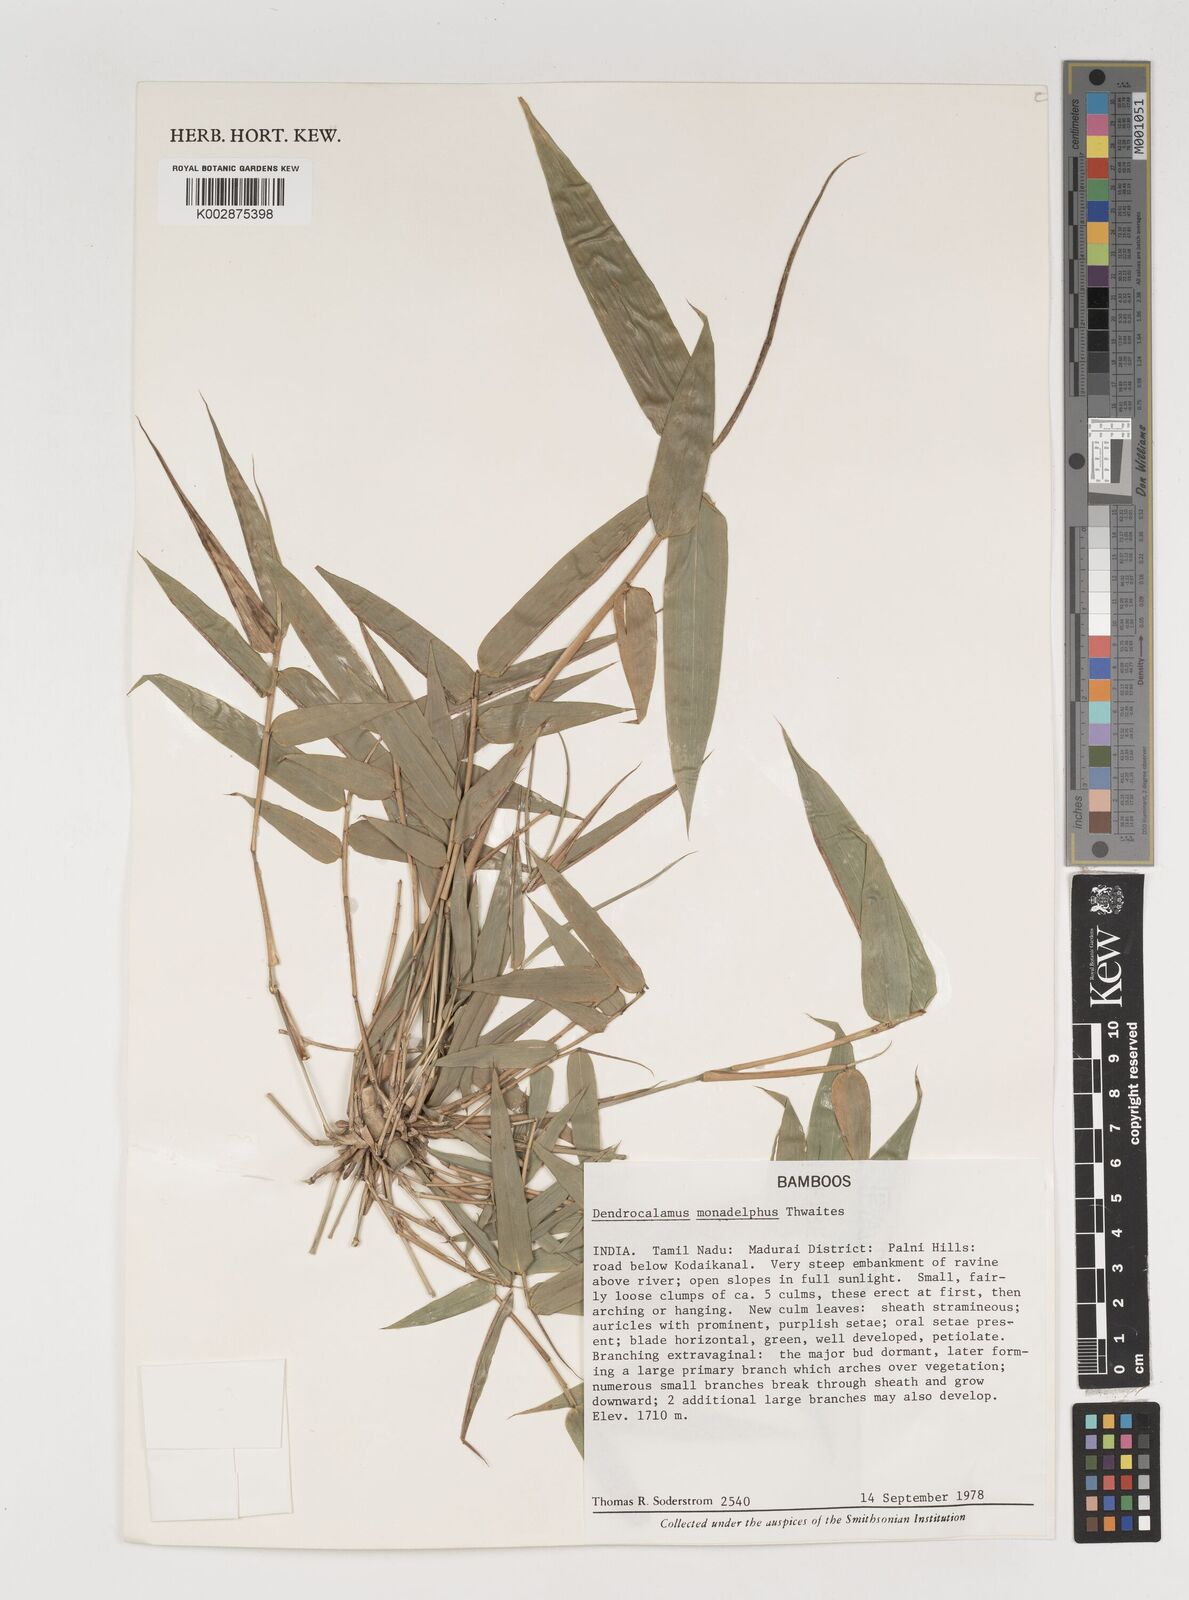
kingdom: Plantae
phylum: Tracheophyta
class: Liliopsida
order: Poales
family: Poaceae
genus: Dendrocalamus
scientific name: Dendrocalamus
